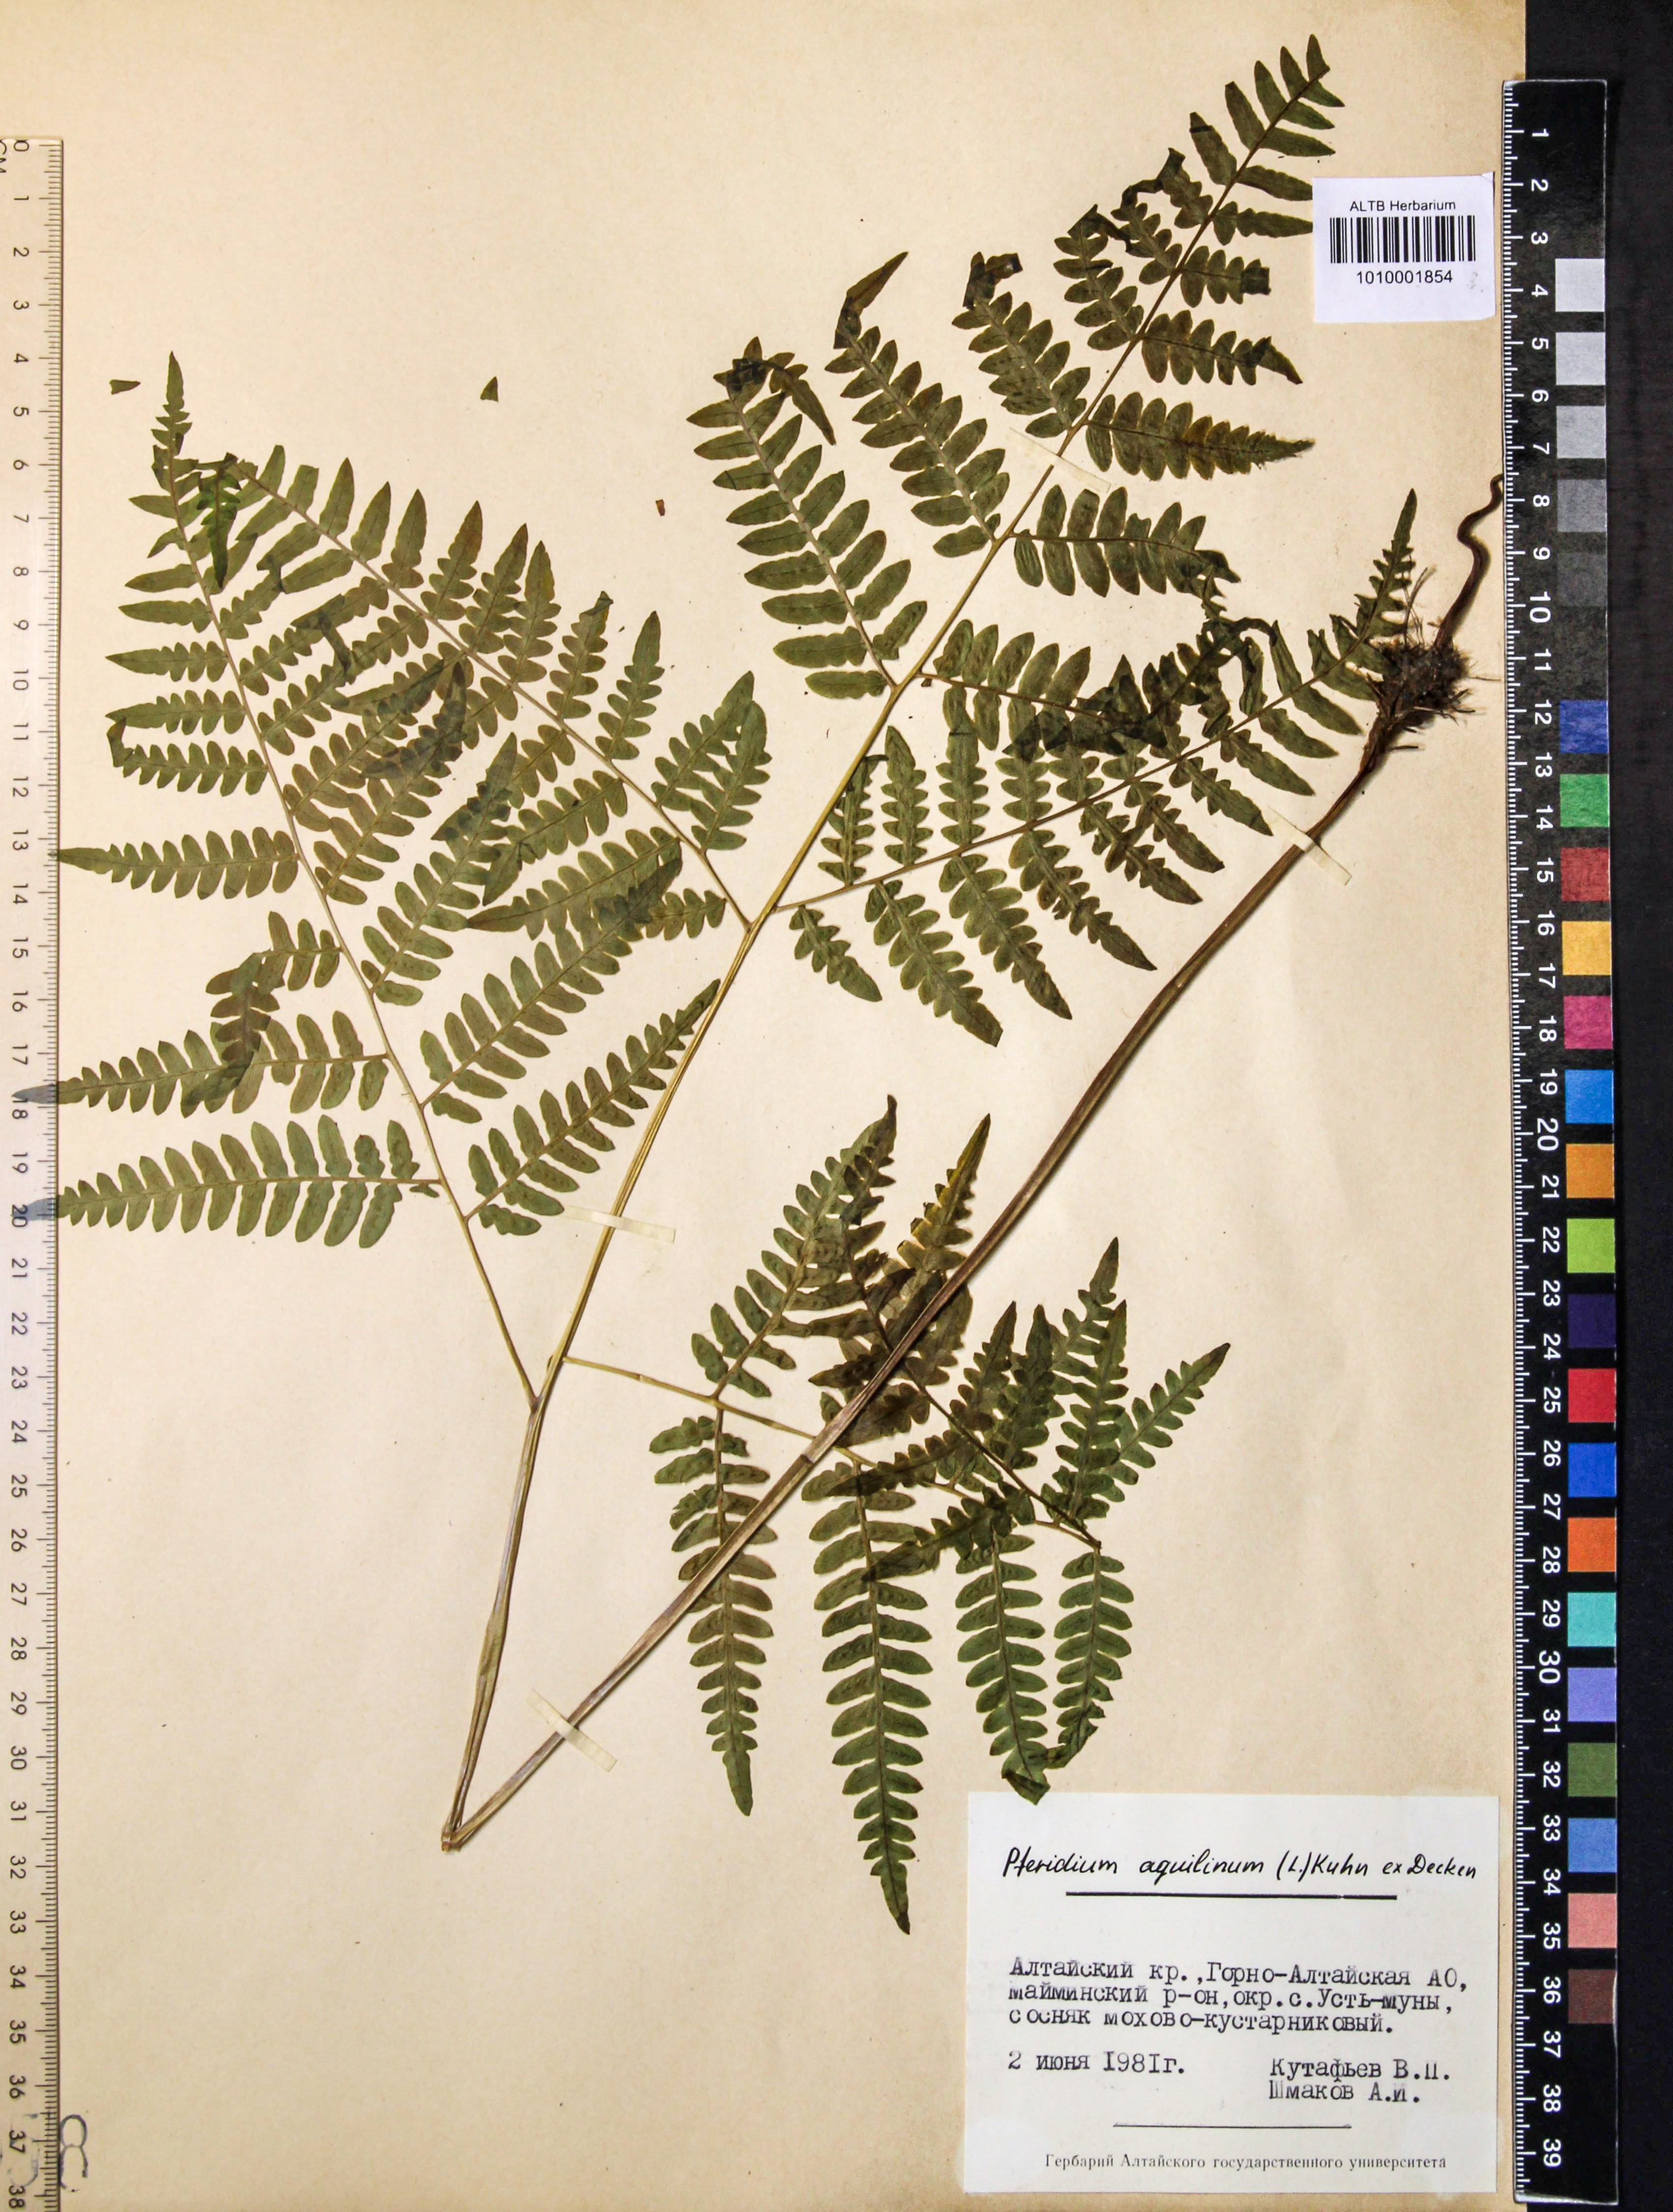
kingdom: Plantae
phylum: Tracheophyta
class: Polypodiopsida
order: Polypodiales
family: Dennstaedtiaceae
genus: Pteridium
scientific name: Pteridium aquilinum
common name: Bracken
